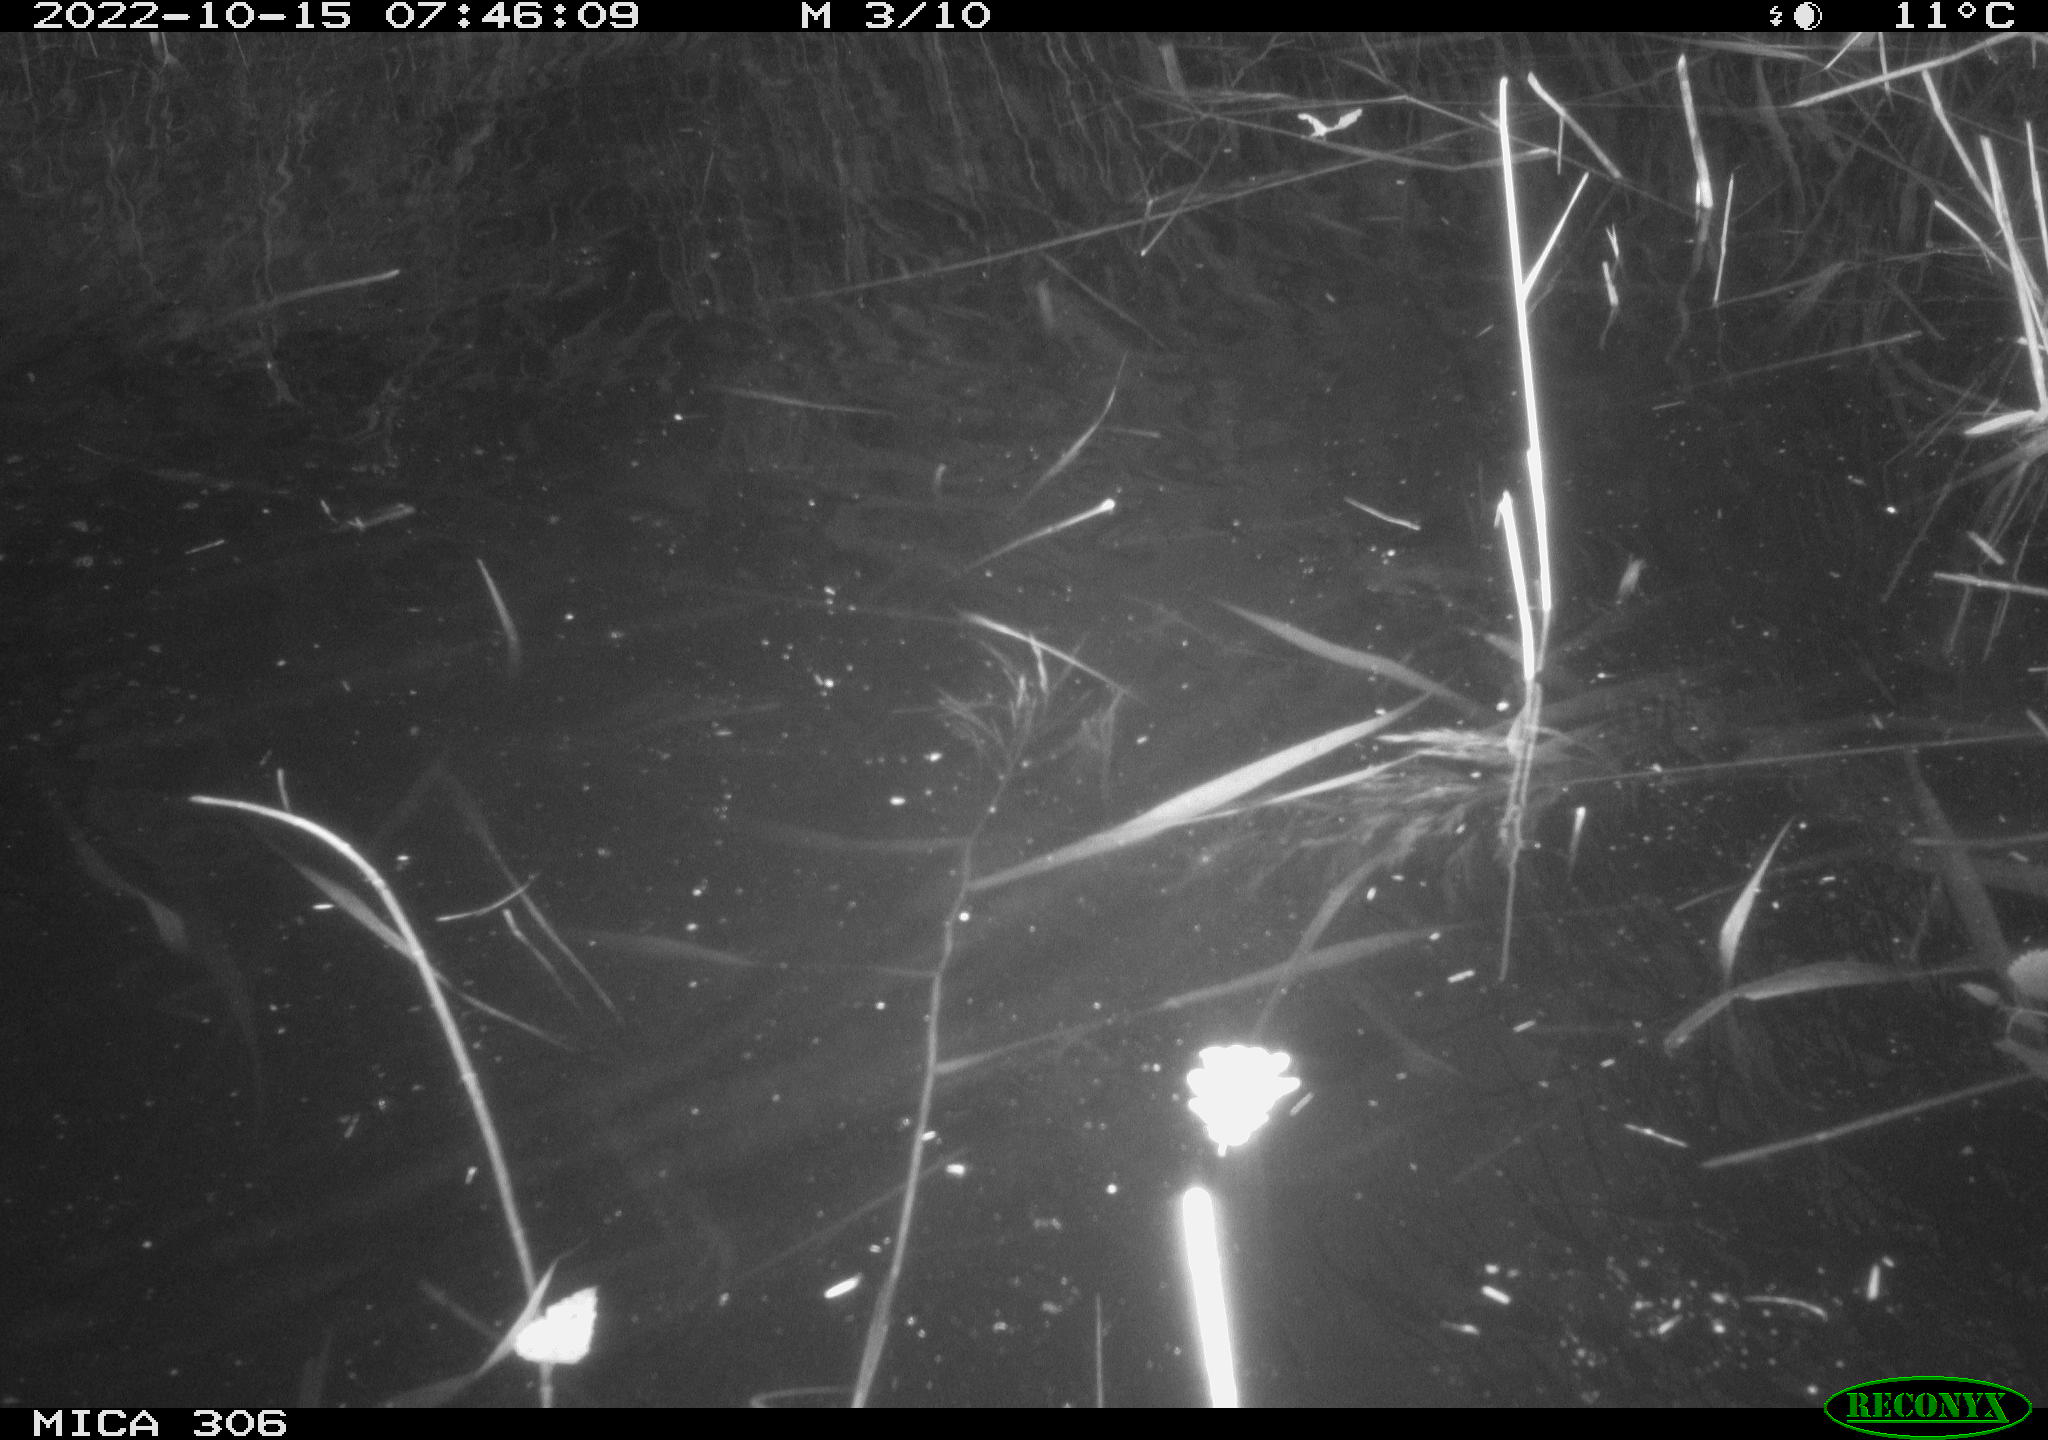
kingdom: Animalia
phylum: Chordata
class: Mammalia
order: Rodentia
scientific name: Rodentia
